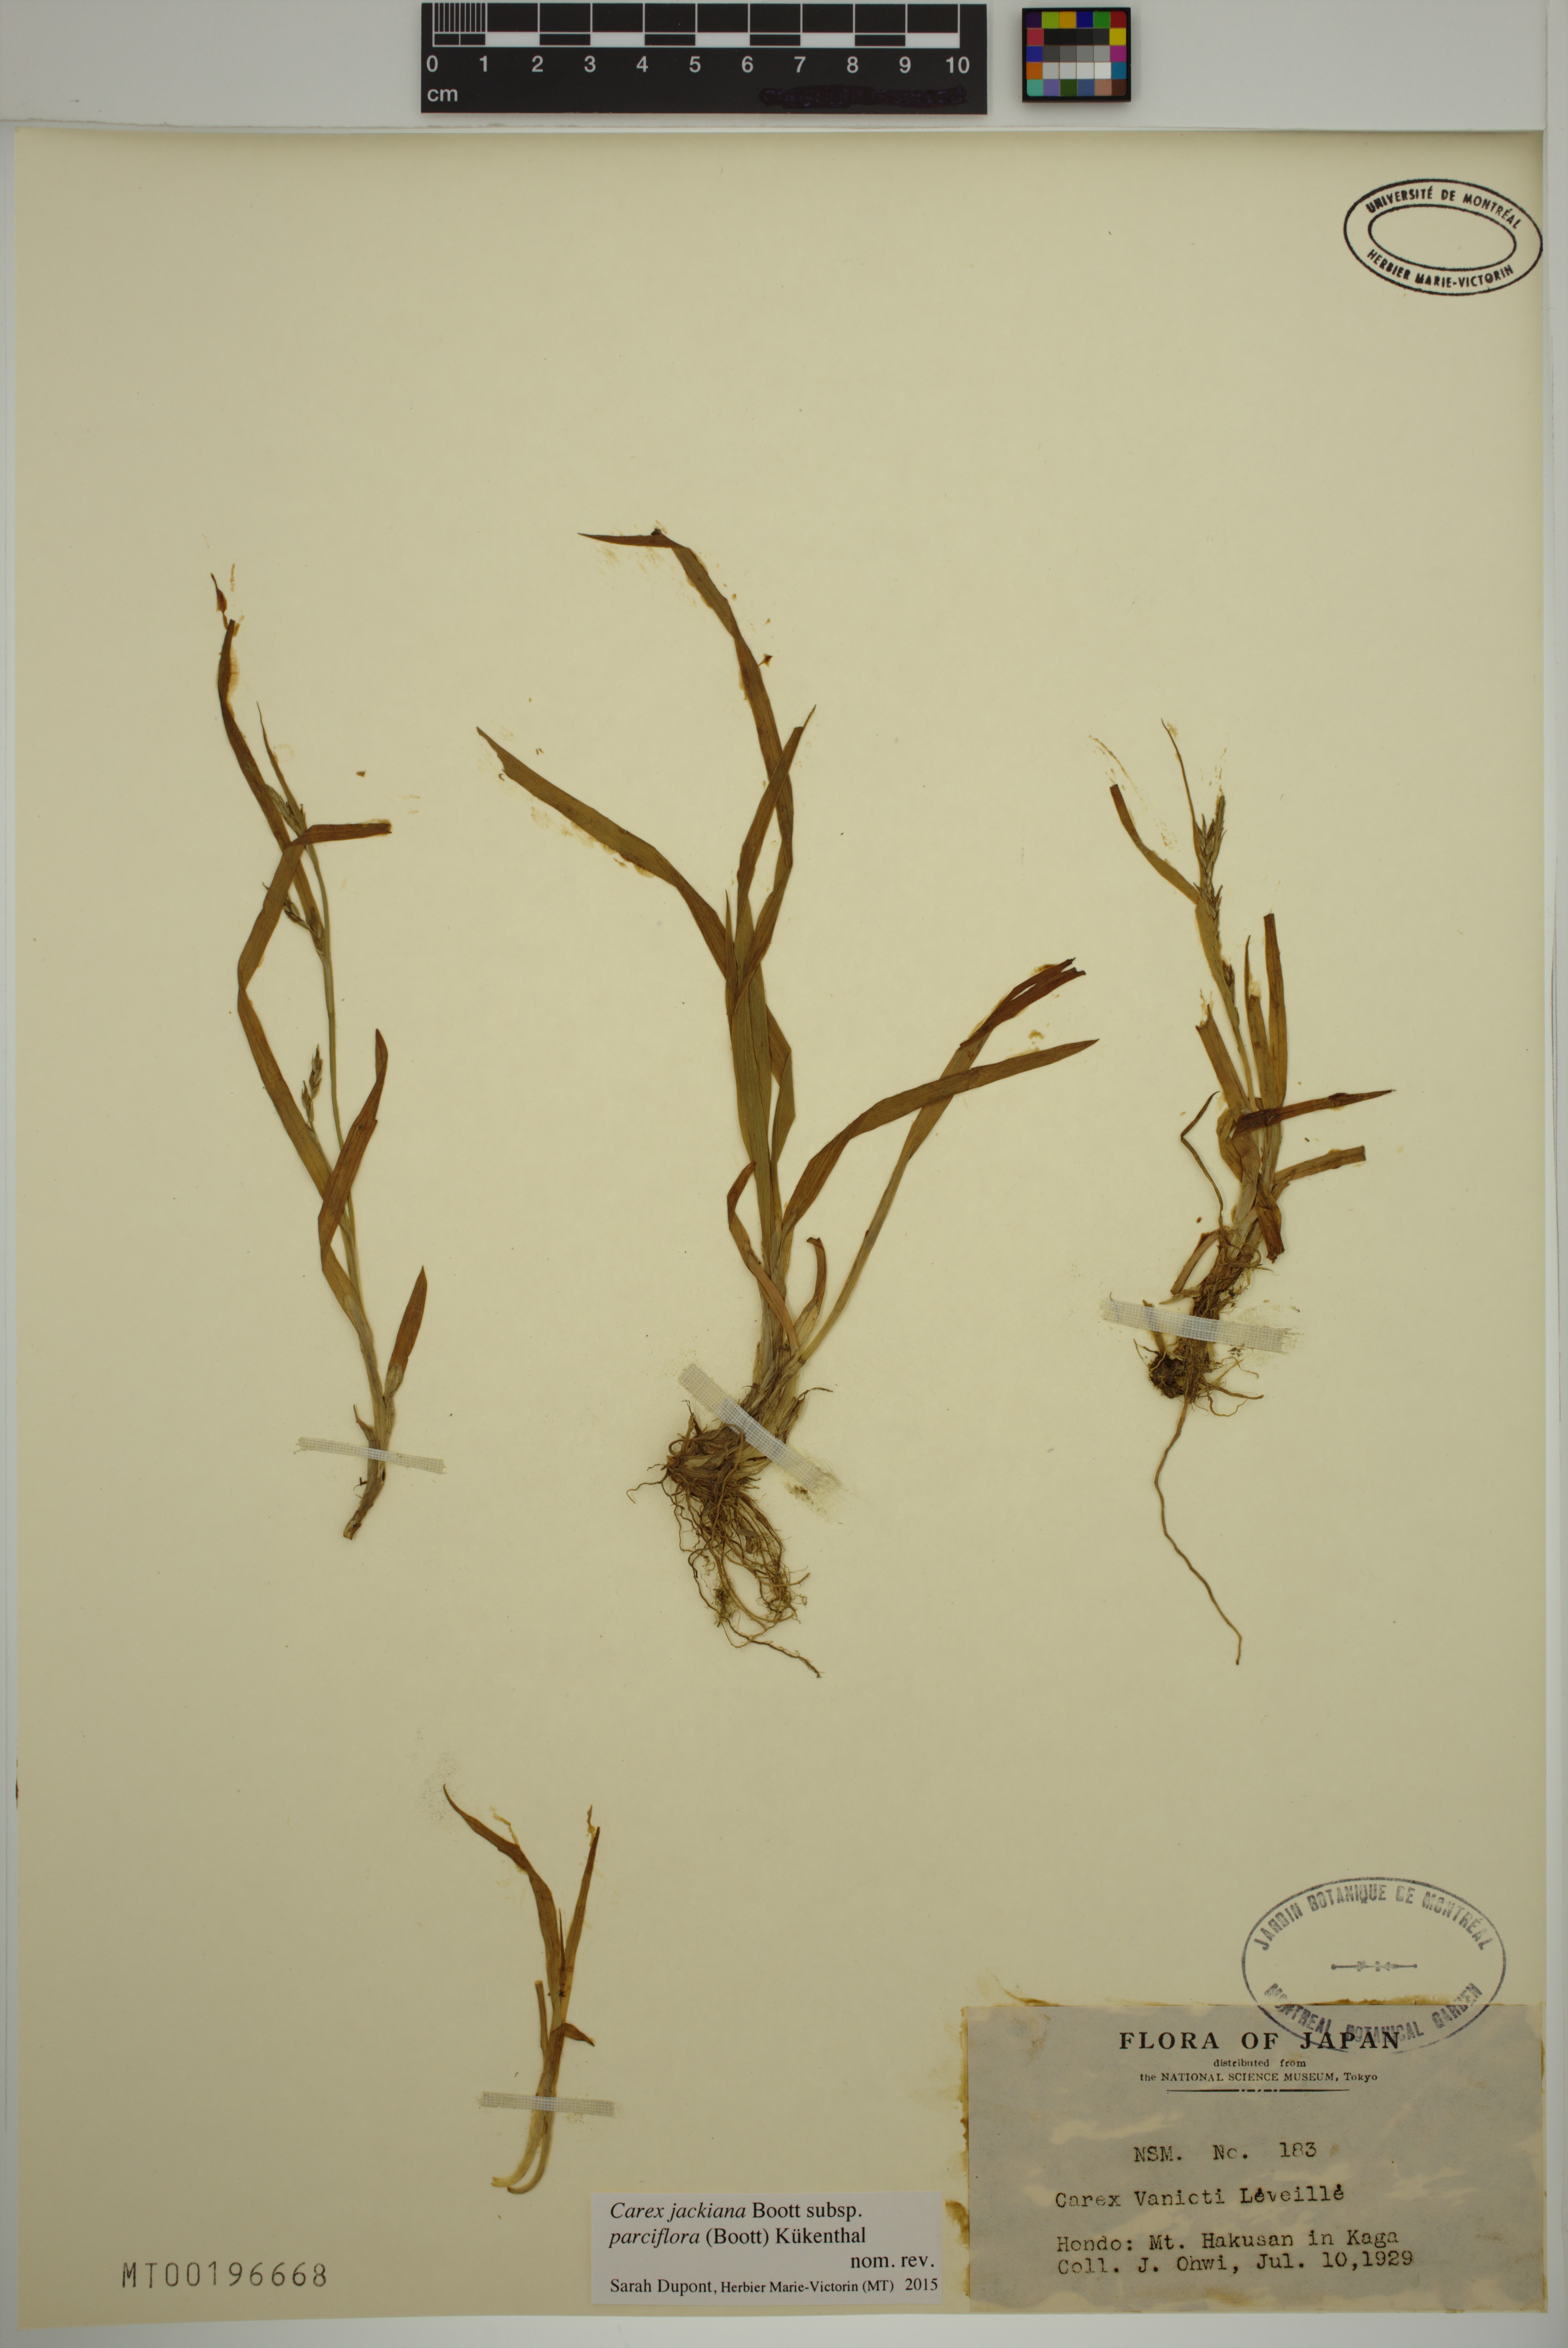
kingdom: Plantae
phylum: Tracheophyta
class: Liliopsida
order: Poales
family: Cyperaceae
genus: Carex
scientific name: Carex parciflora
